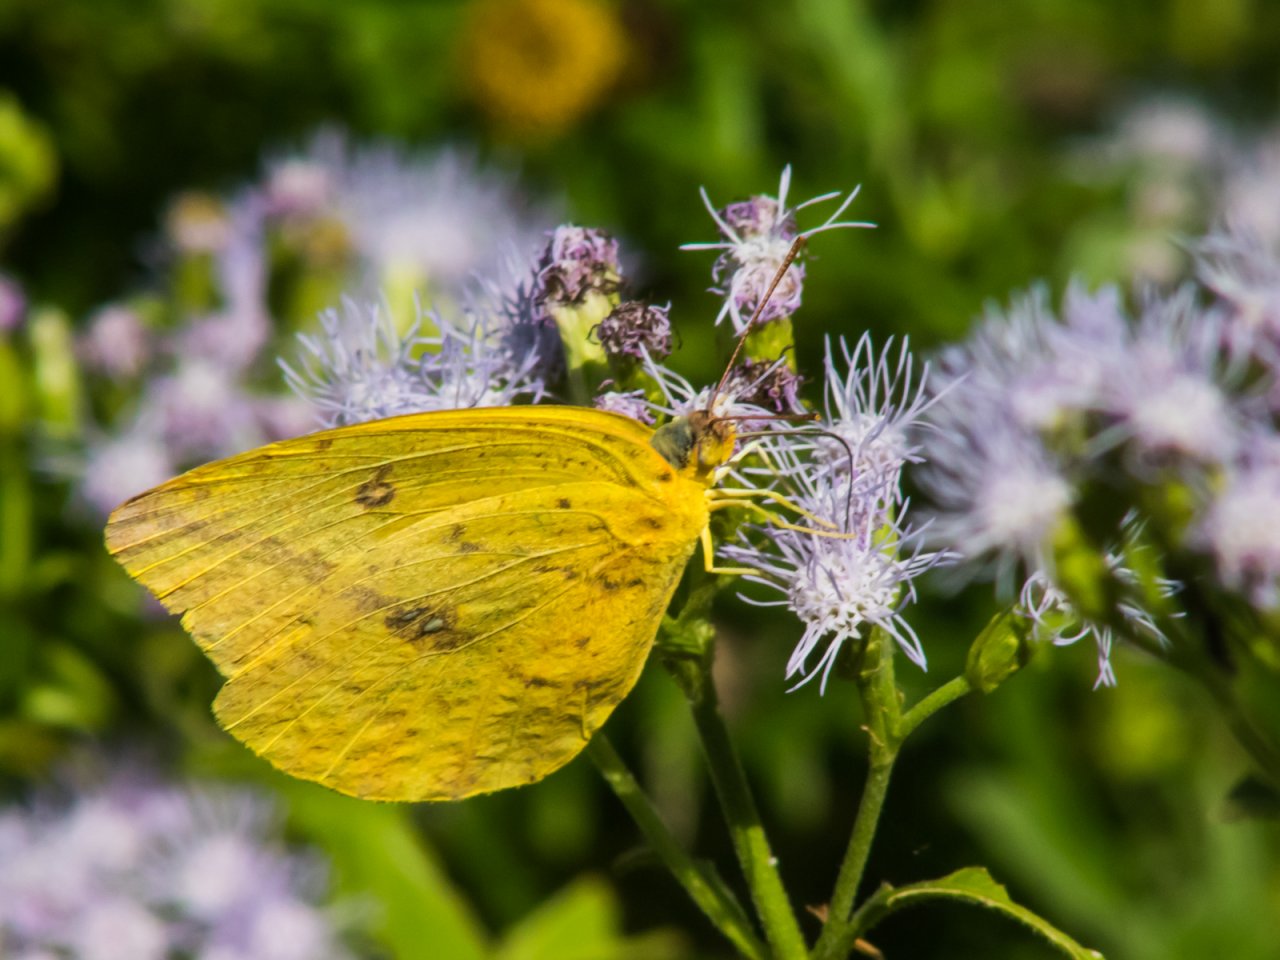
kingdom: Animalia
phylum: Arthropoda
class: Insecta
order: Lepidoptera
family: Pieridae
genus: Phoebis
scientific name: Phoebis agarithe
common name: Large Orange Sulphur
